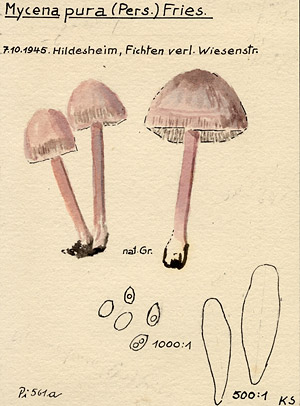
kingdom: Fungi
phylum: Basidiomycota
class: Agaricomycetes
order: Agaricales
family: Mycenaceae
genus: Mycena
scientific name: Mycena pura
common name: Lilac bonnet
